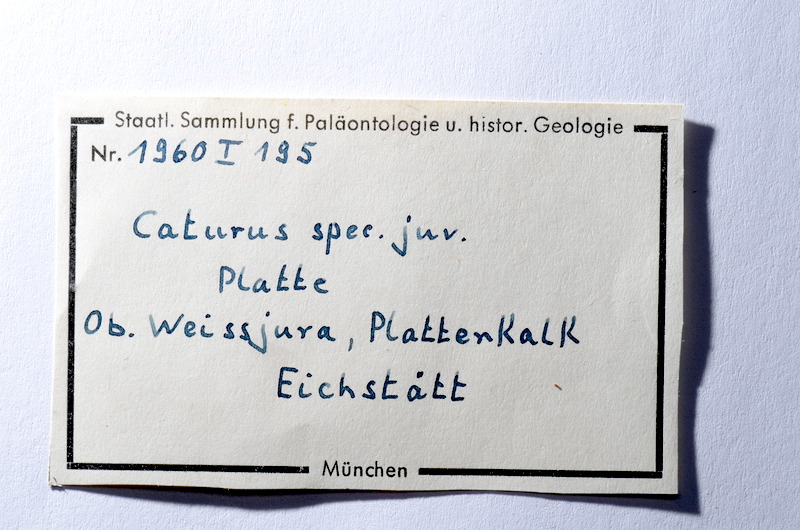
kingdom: Animalia
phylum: Chordata
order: Amiiformes
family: Caturidae
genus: Caturus
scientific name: Caturus
